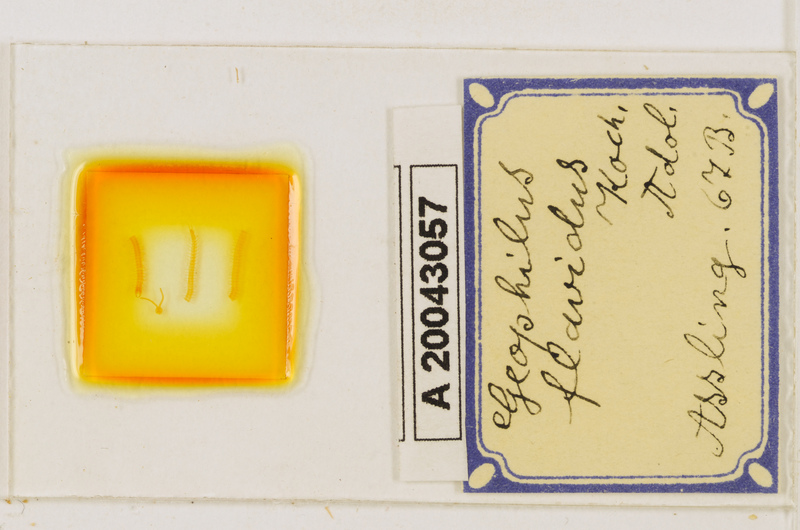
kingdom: Animalia
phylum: Arthropoda
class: Chilopoda
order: Geophilomorpha
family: Geophilidae
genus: Clinopodes
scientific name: Clinopodes flavidus
